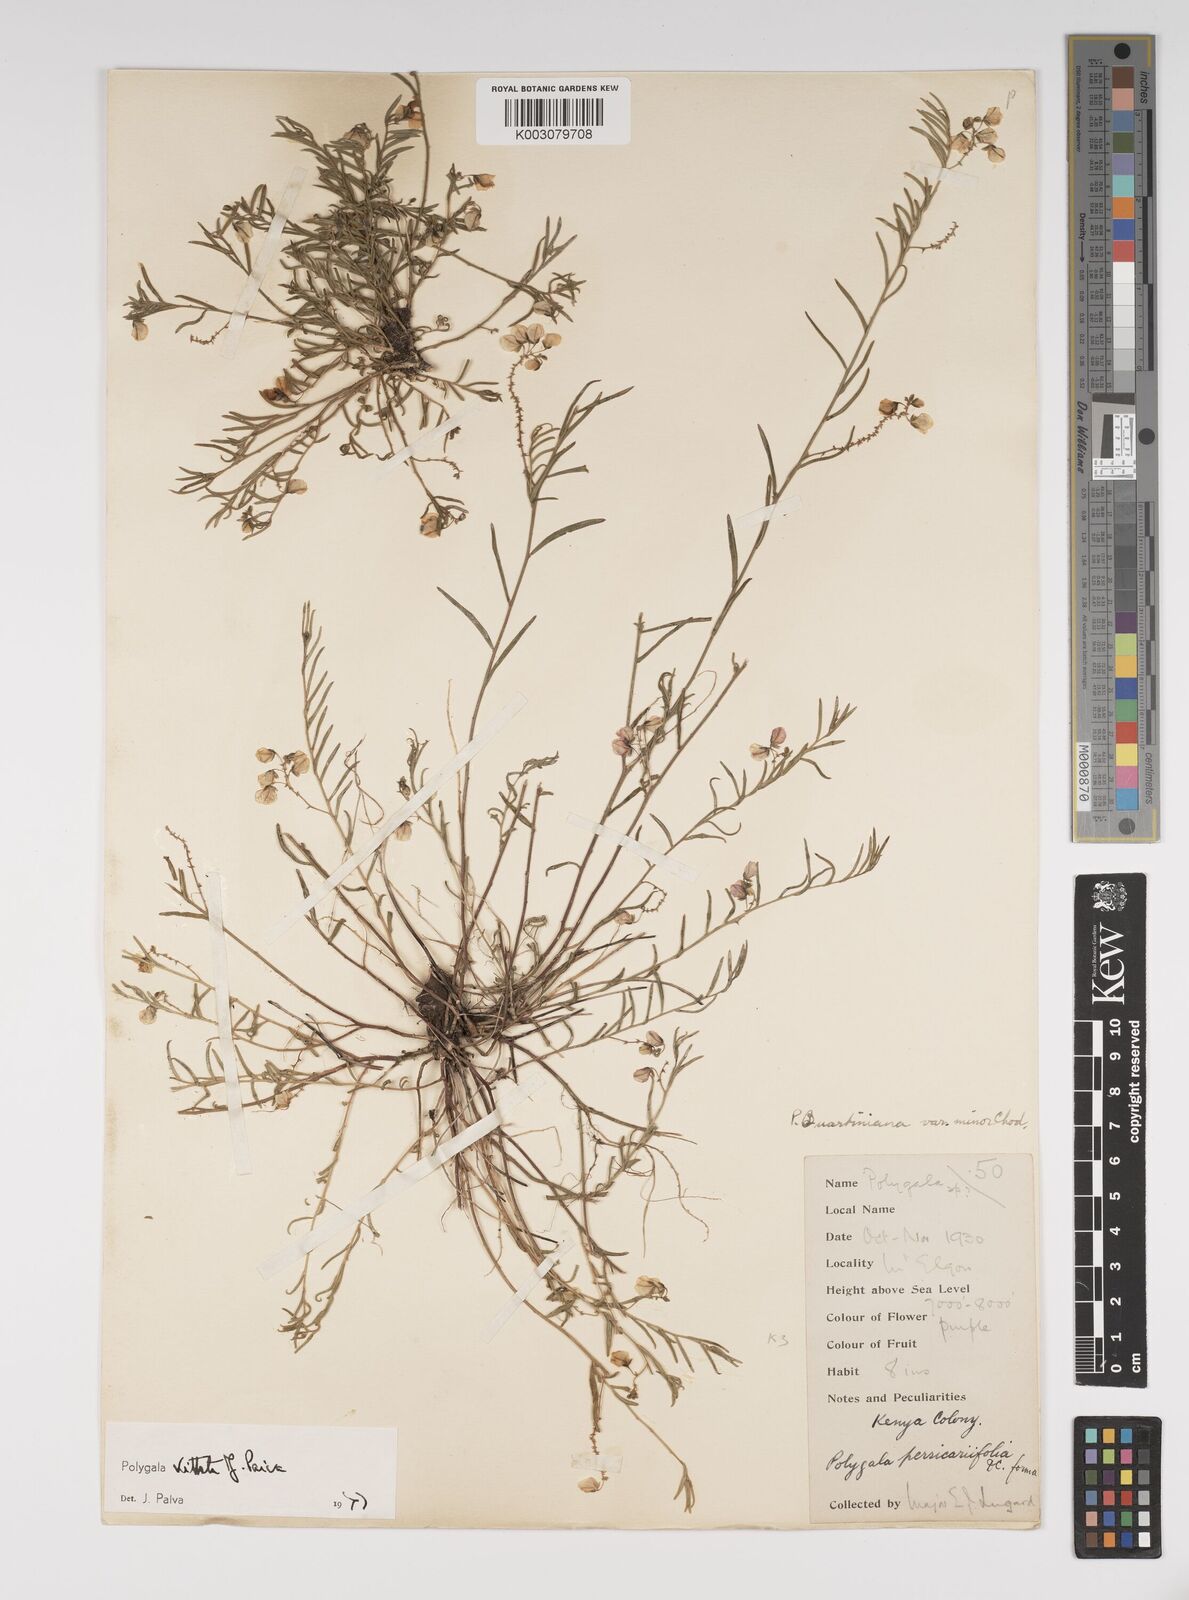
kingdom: Plantae
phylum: Tracheophyta
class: Magnoliopsida
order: Fabales
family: Polygalaceae
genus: Polygala
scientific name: Polygala vittata
